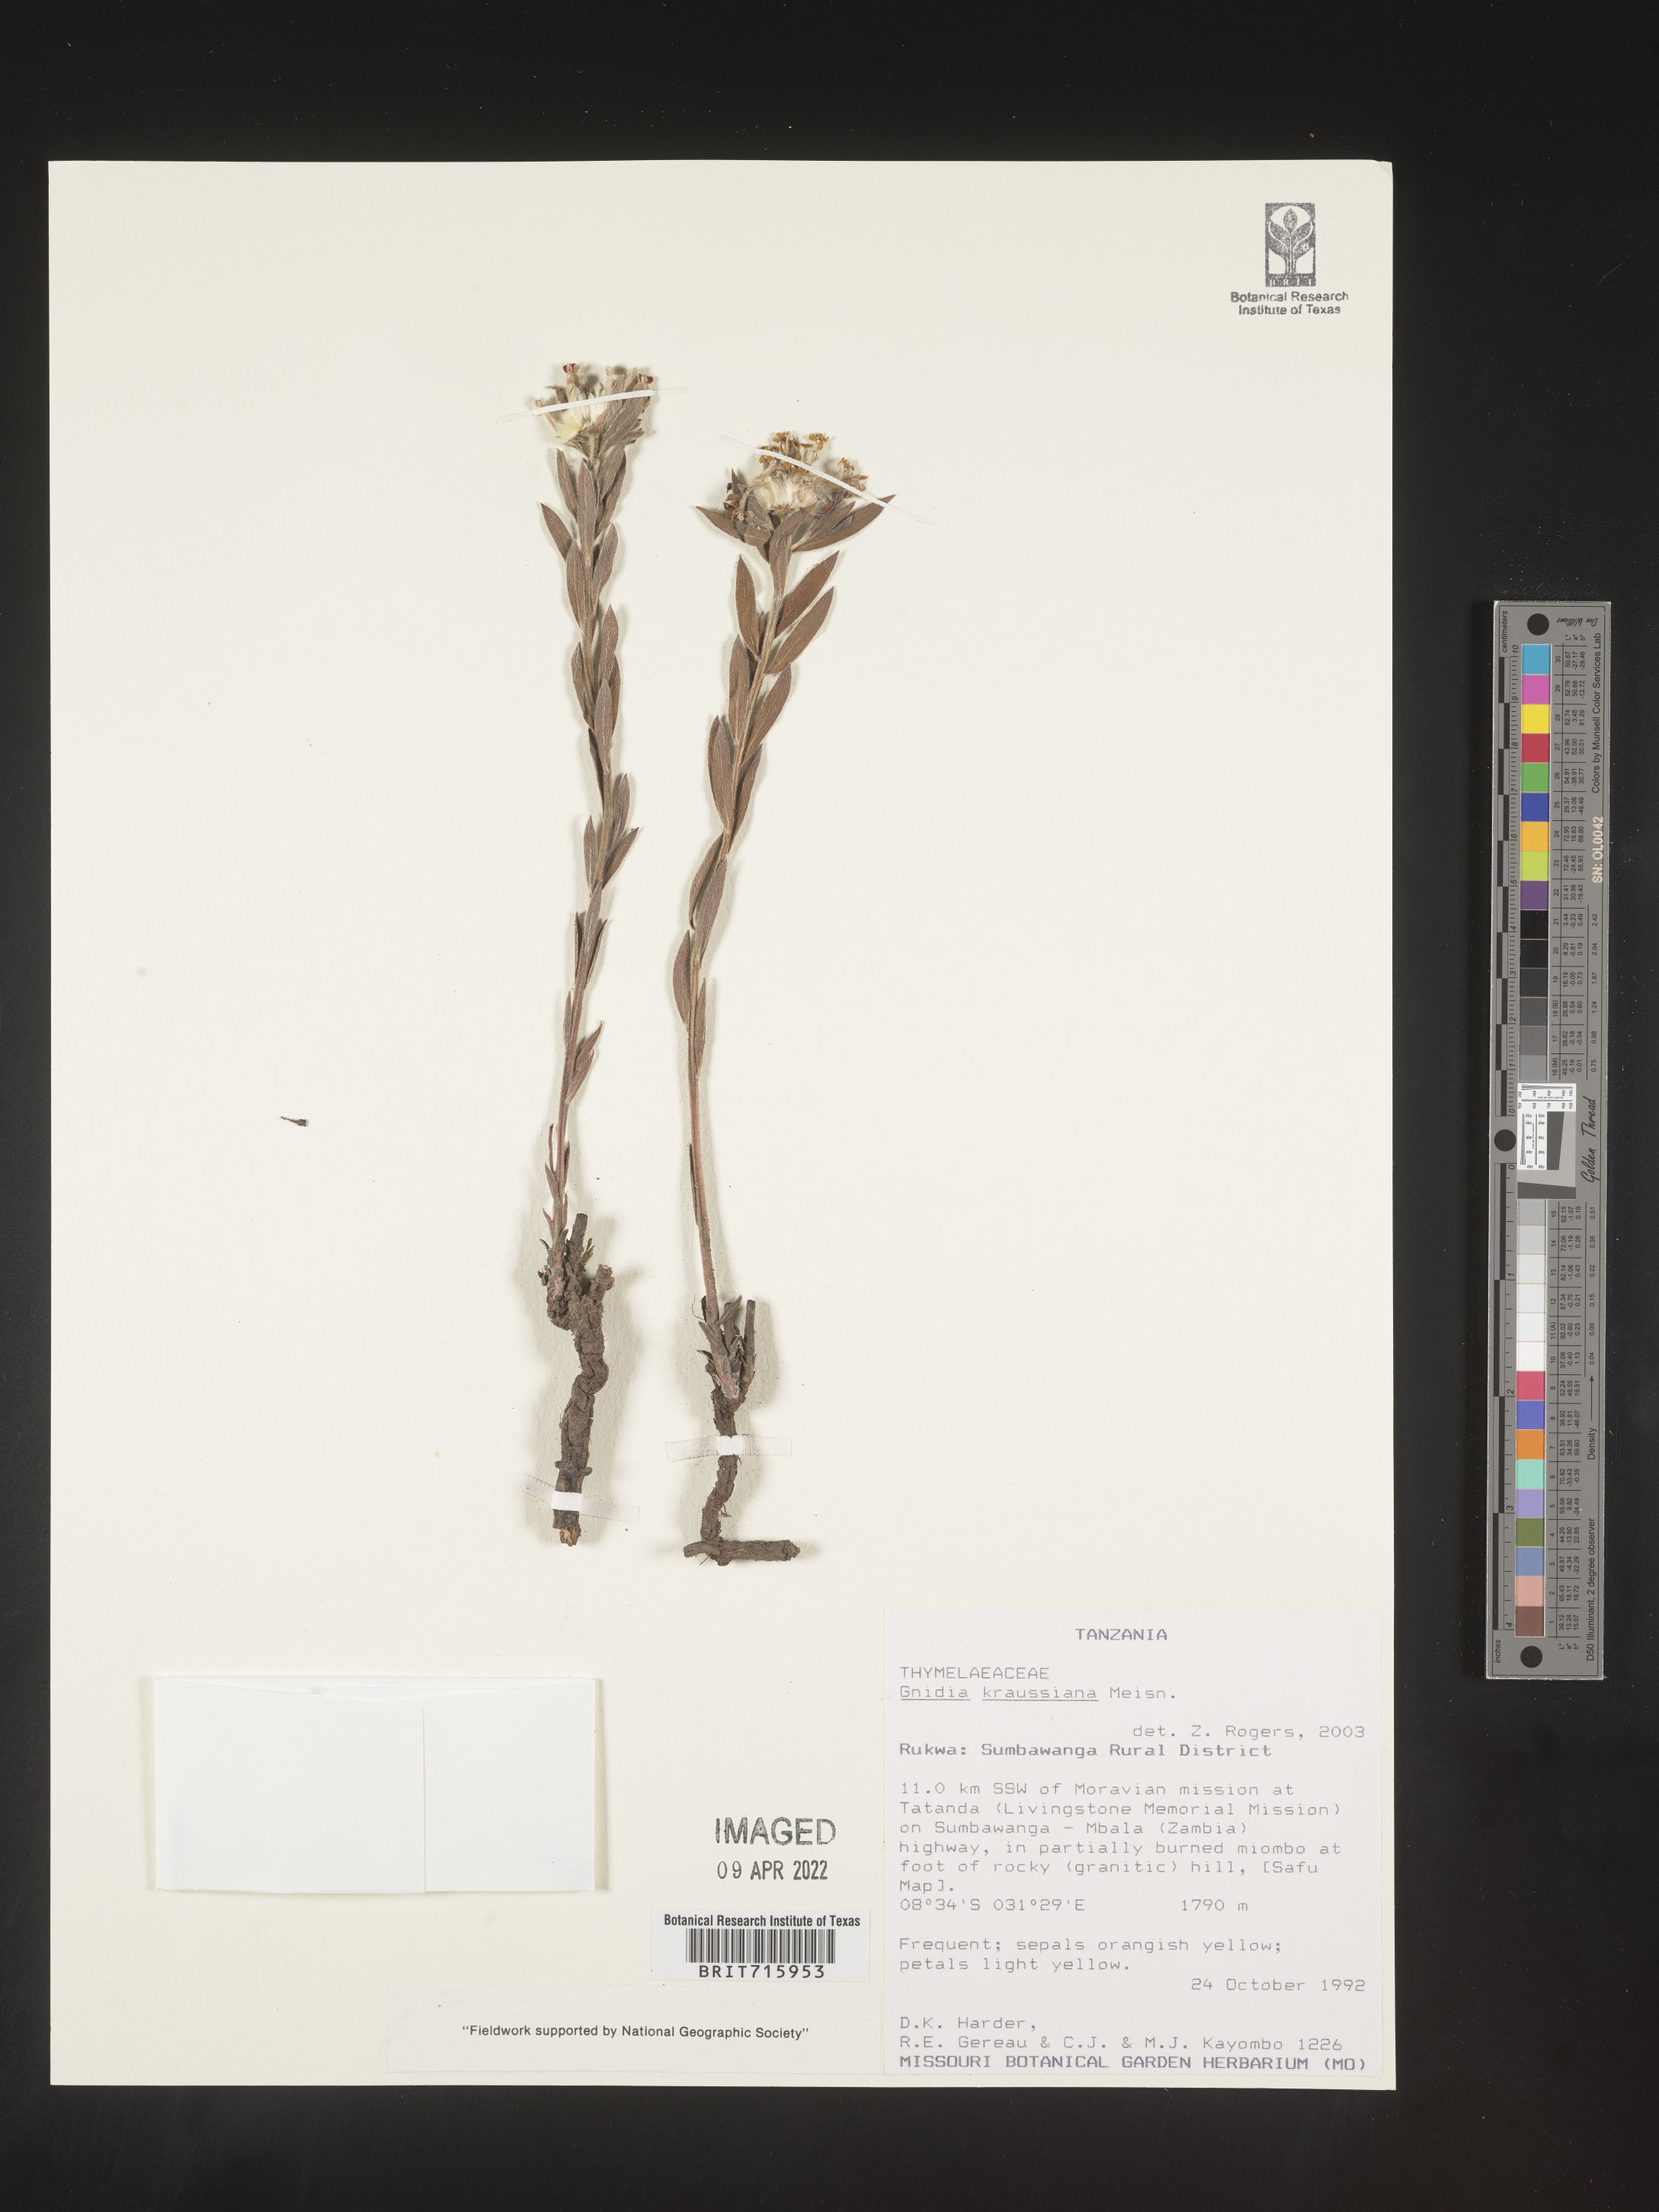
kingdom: Plantae
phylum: Tracheophyta
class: Magnoliopsida
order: Malvales
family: Thymelaeaceae
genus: Gnidia
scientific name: Gnidia
